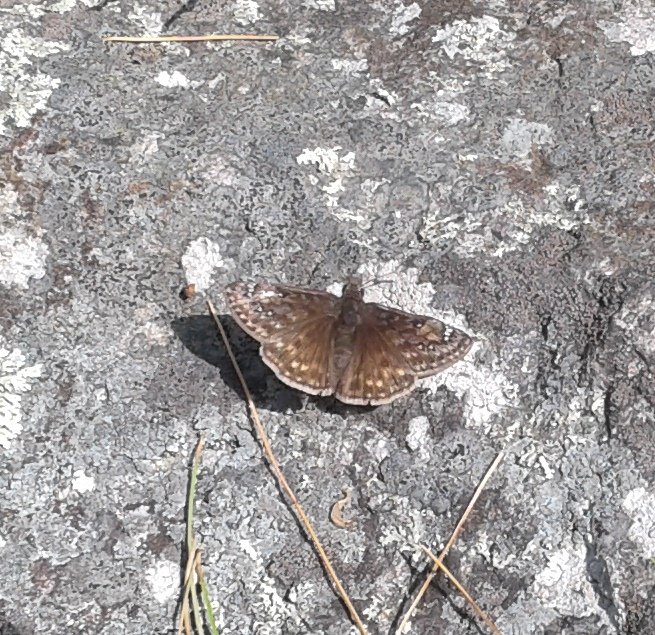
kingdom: Animalia
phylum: Arthropoda
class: Insecta
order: Lepidoptera
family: Hesperiidae
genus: Gesta
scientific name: Gesta
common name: Juvenal's Duskywing
